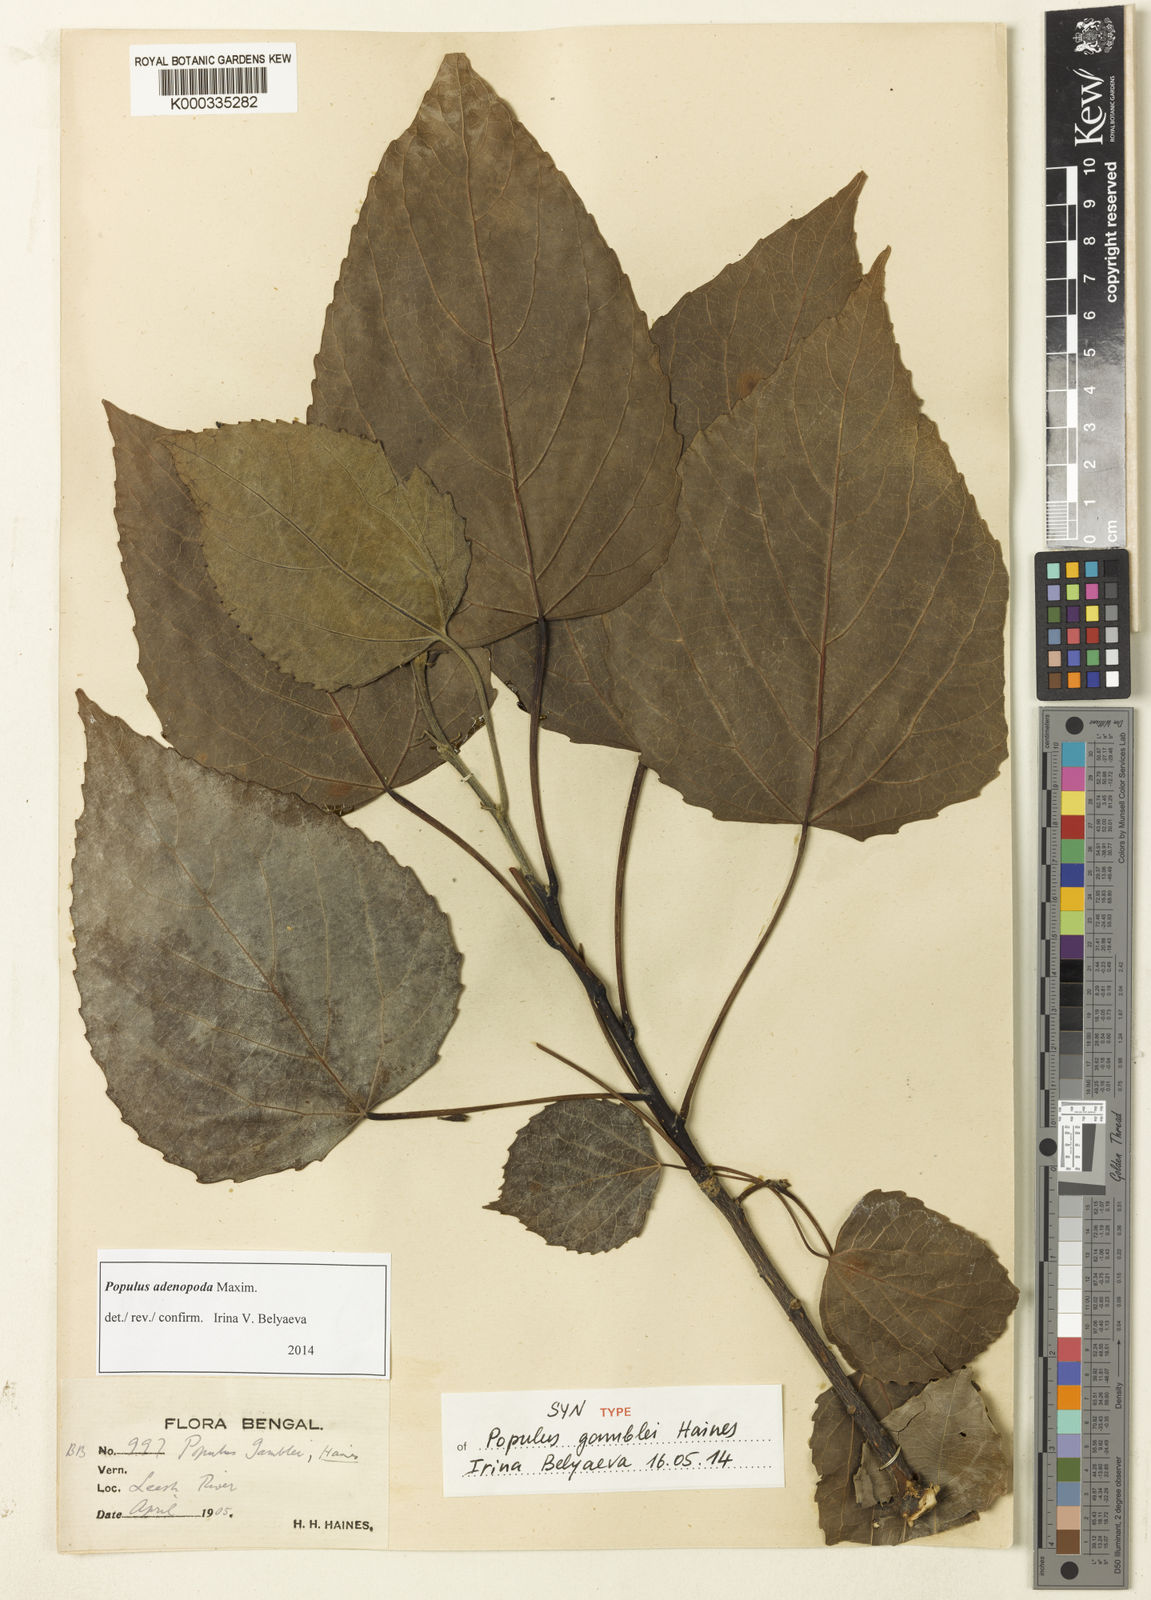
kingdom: Plantae
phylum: Tracheophyta
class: Magnoliopsida
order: Malpighiales
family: Salicaceae
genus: Populus
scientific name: Populus
